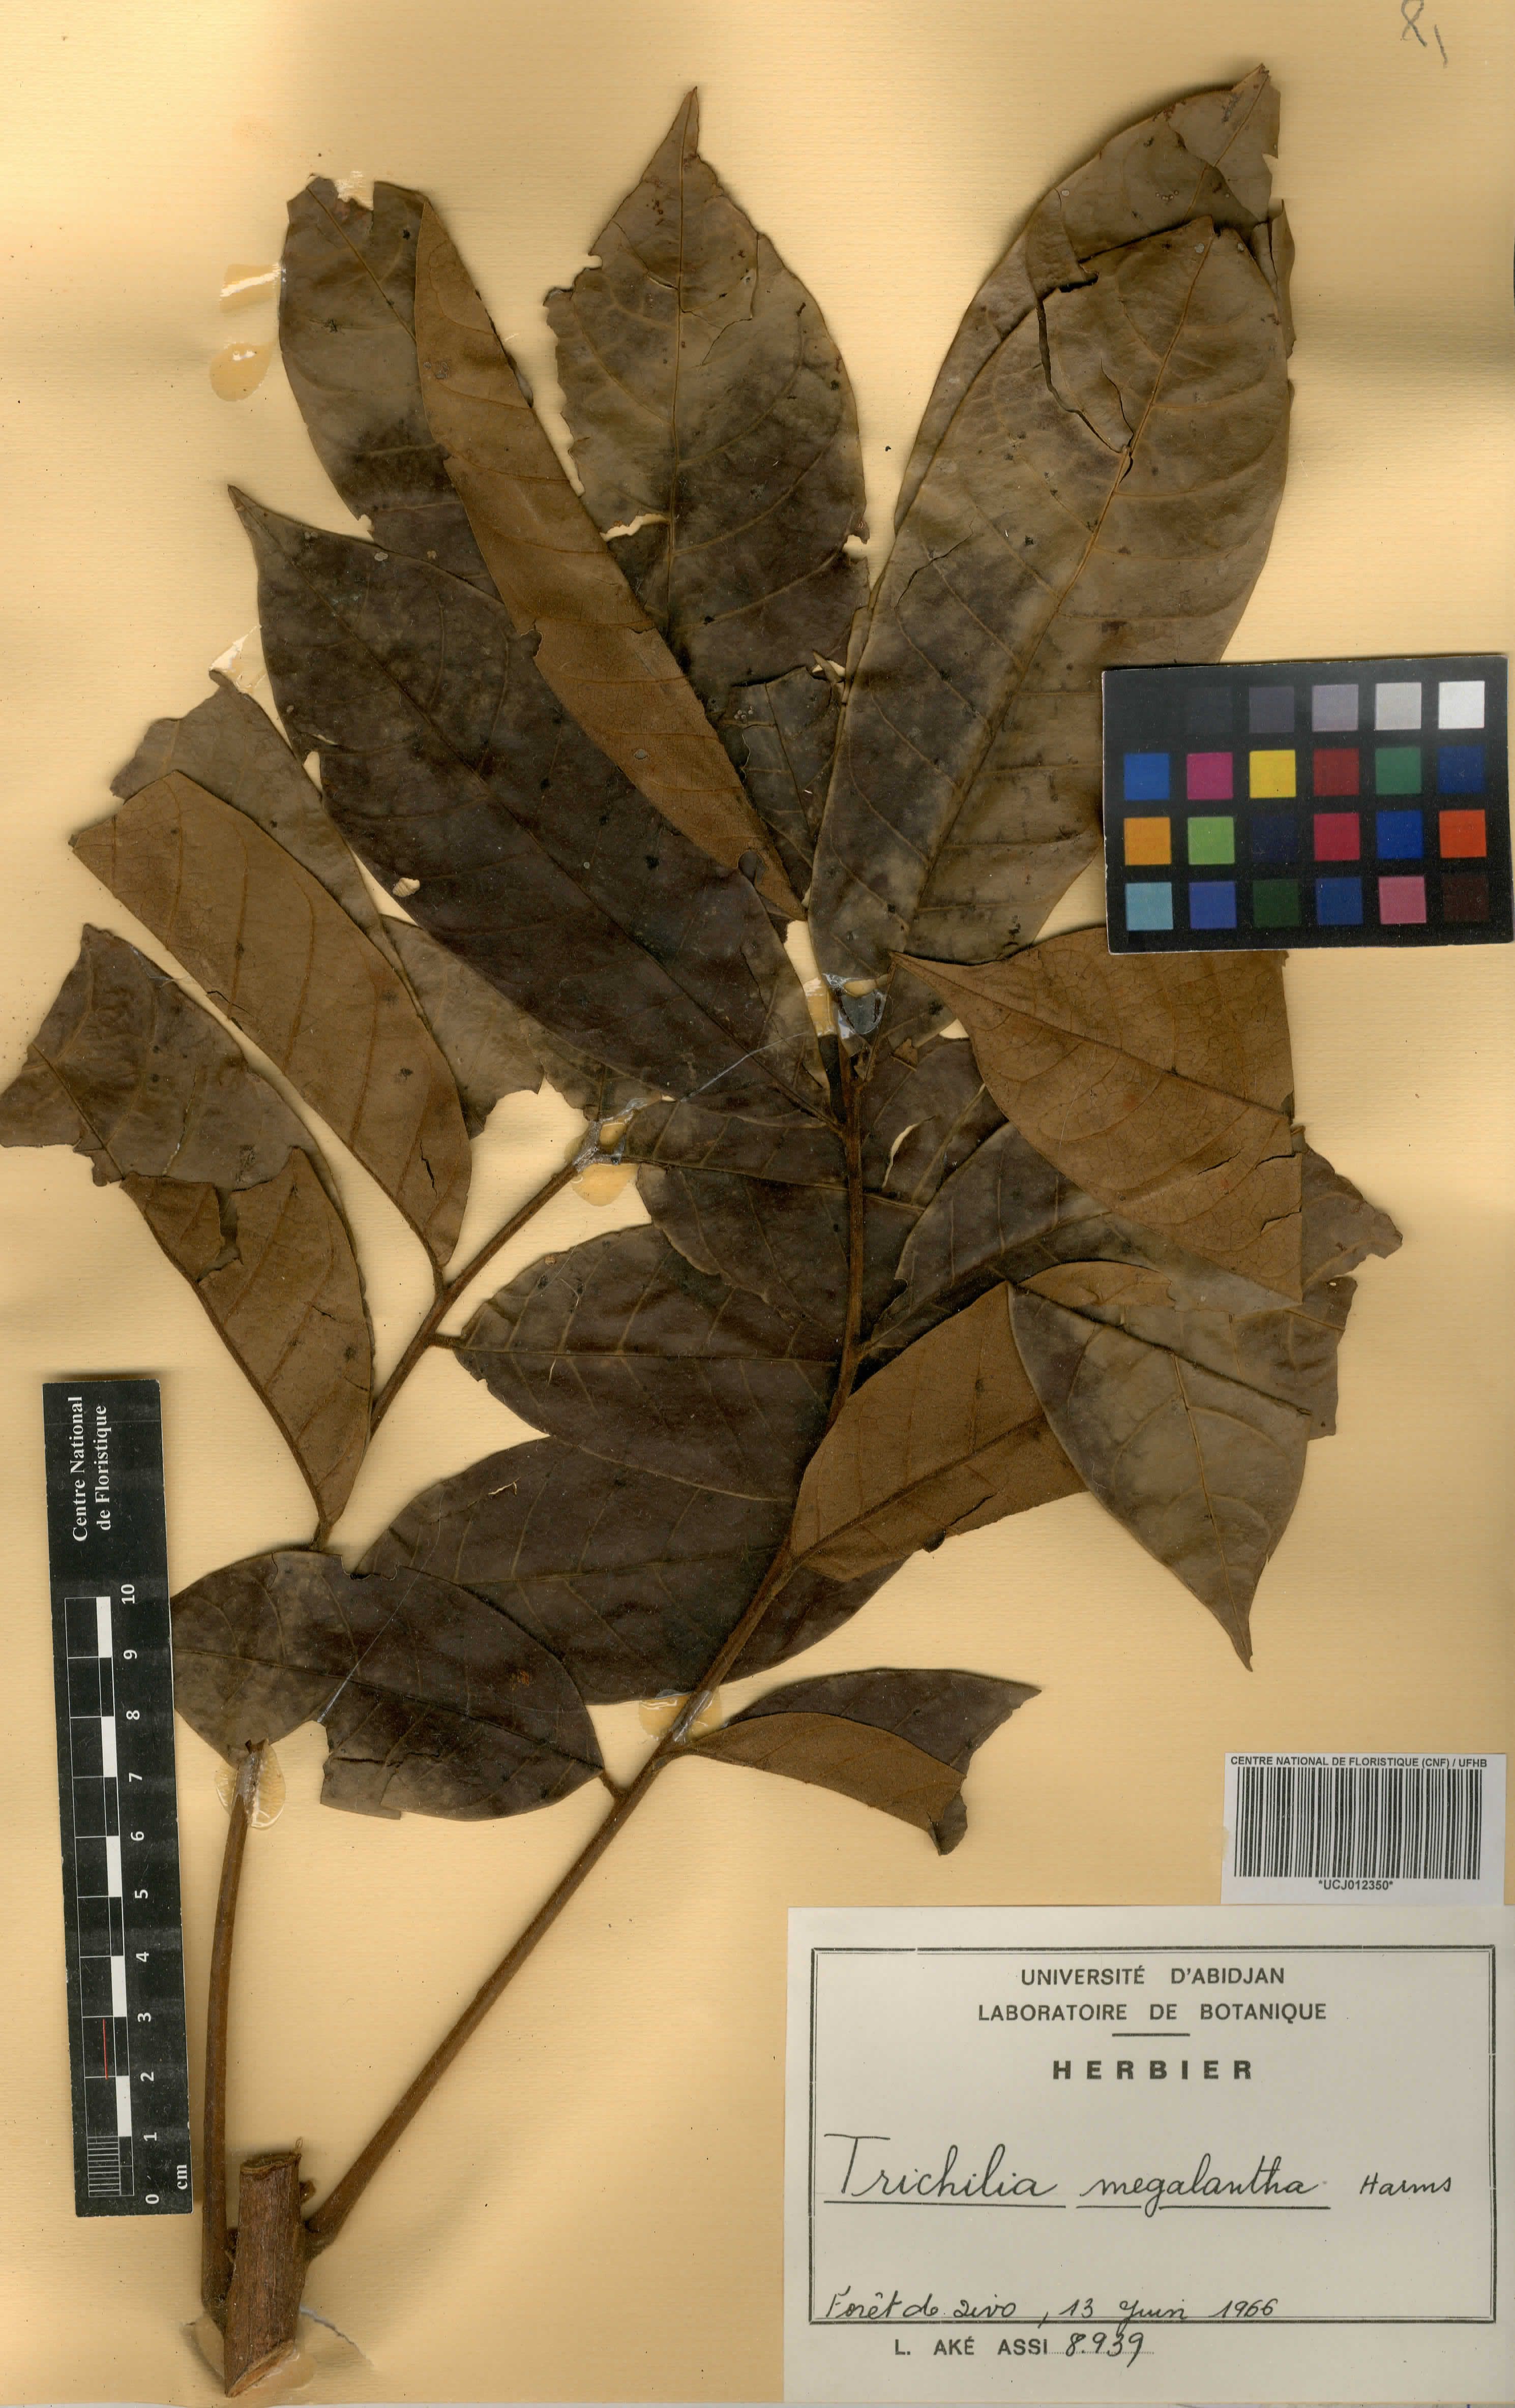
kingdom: Plantae
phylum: Tracheophyta
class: Magnoliopsida
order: Sapindales
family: Meliaceae
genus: Trichilia
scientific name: Trichilia megalantha
